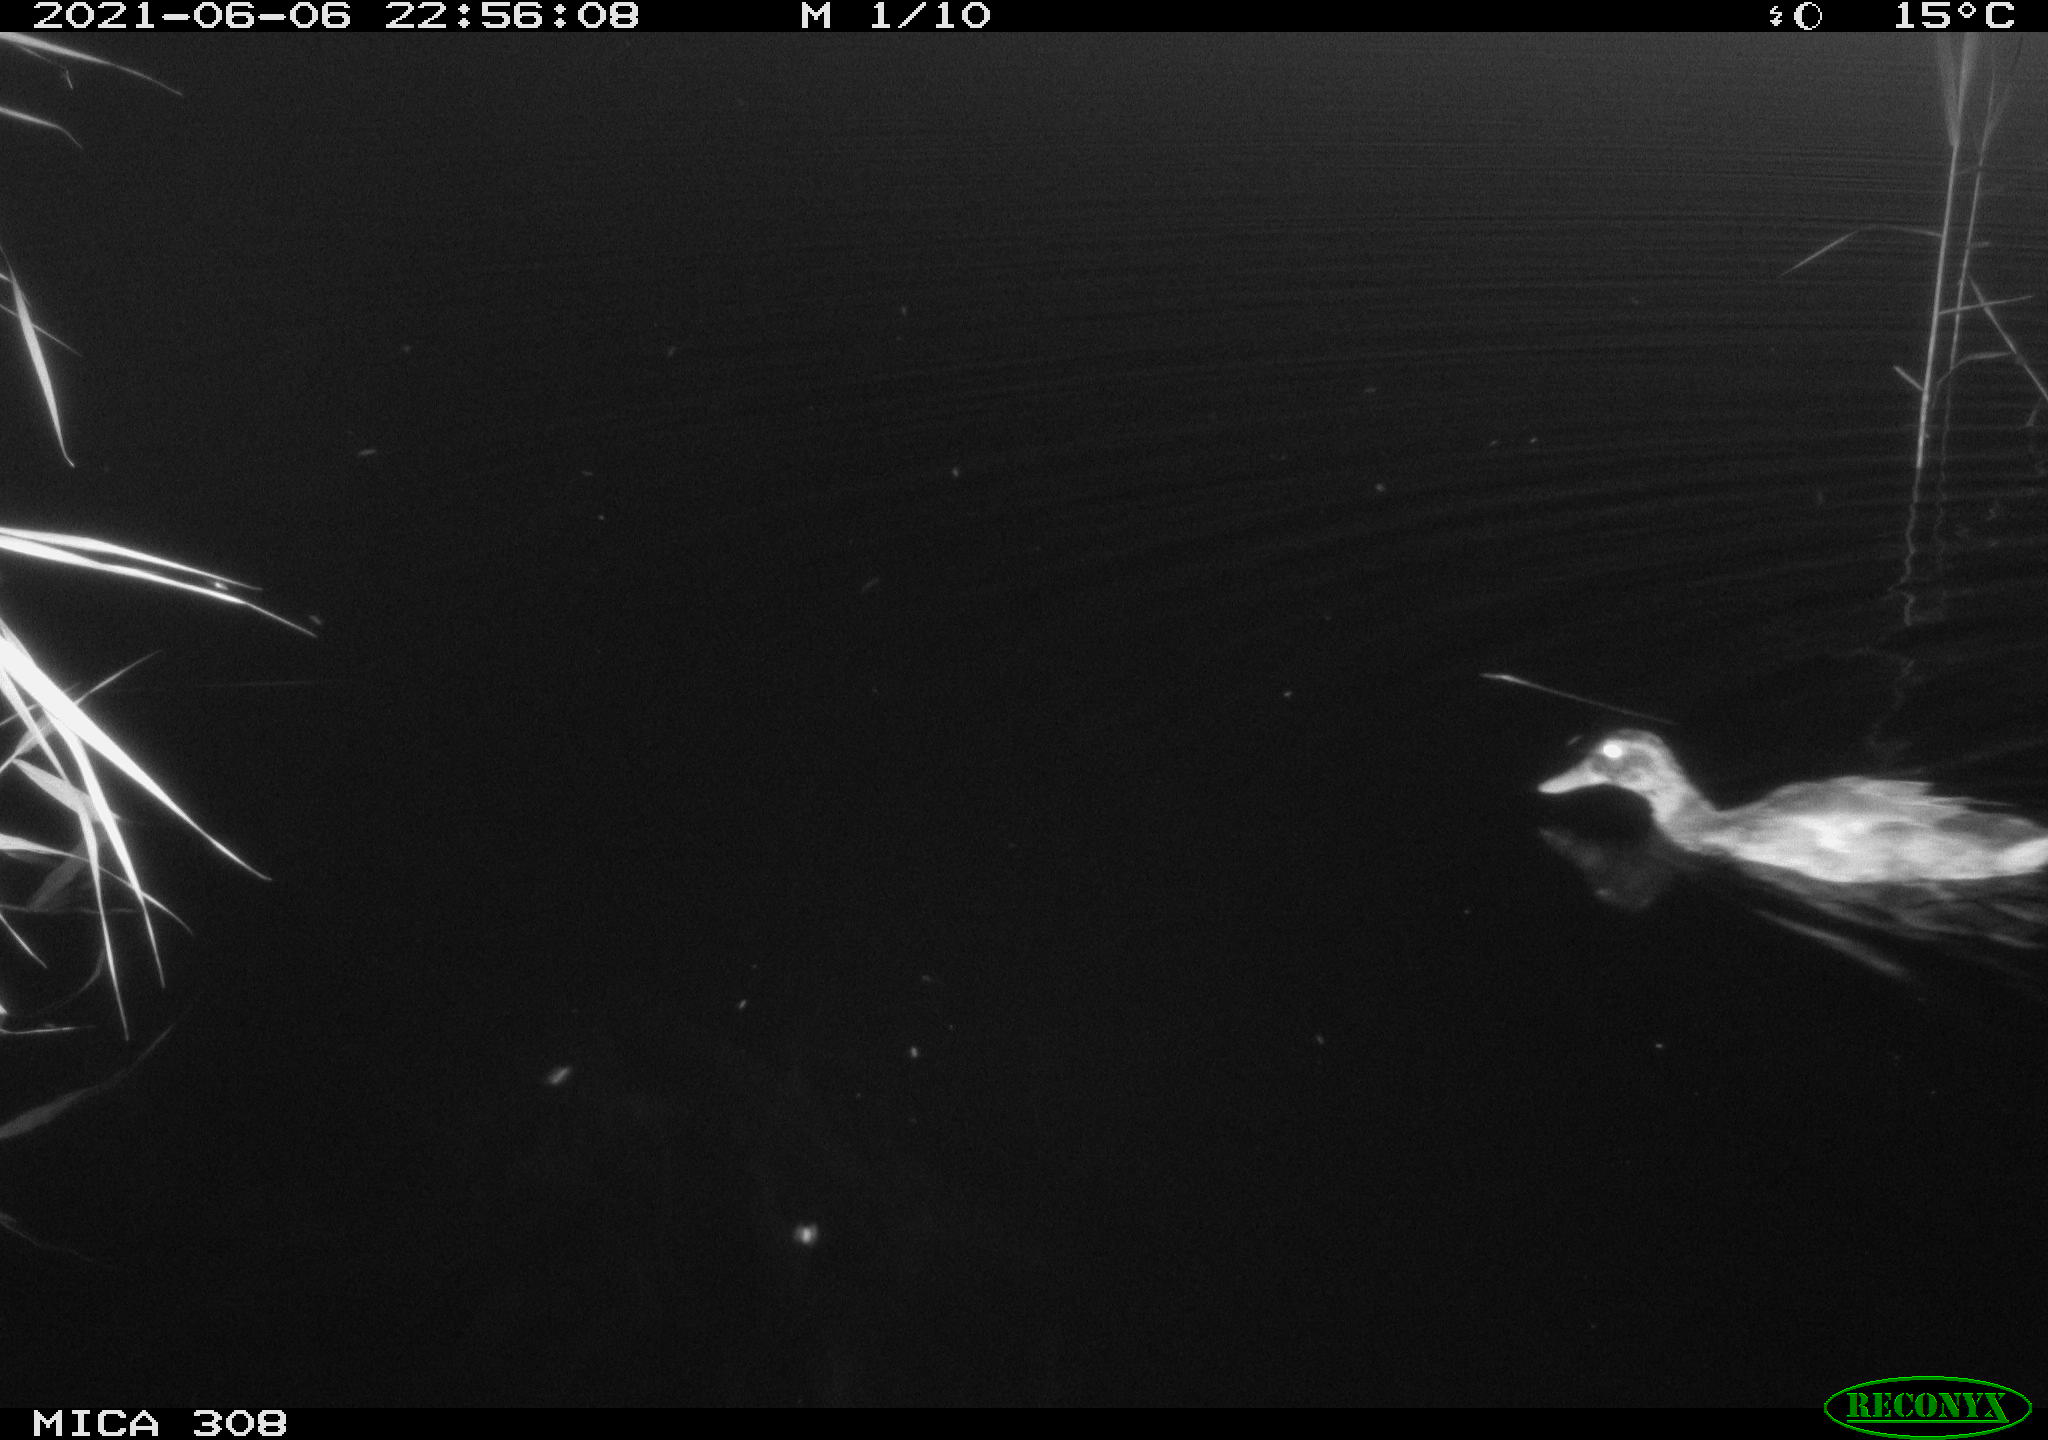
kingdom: Animalia
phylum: Chordata
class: Aves
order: Anseriformes
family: Anatidae
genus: Anas
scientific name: Anas platyrhynchos
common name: Mallard
